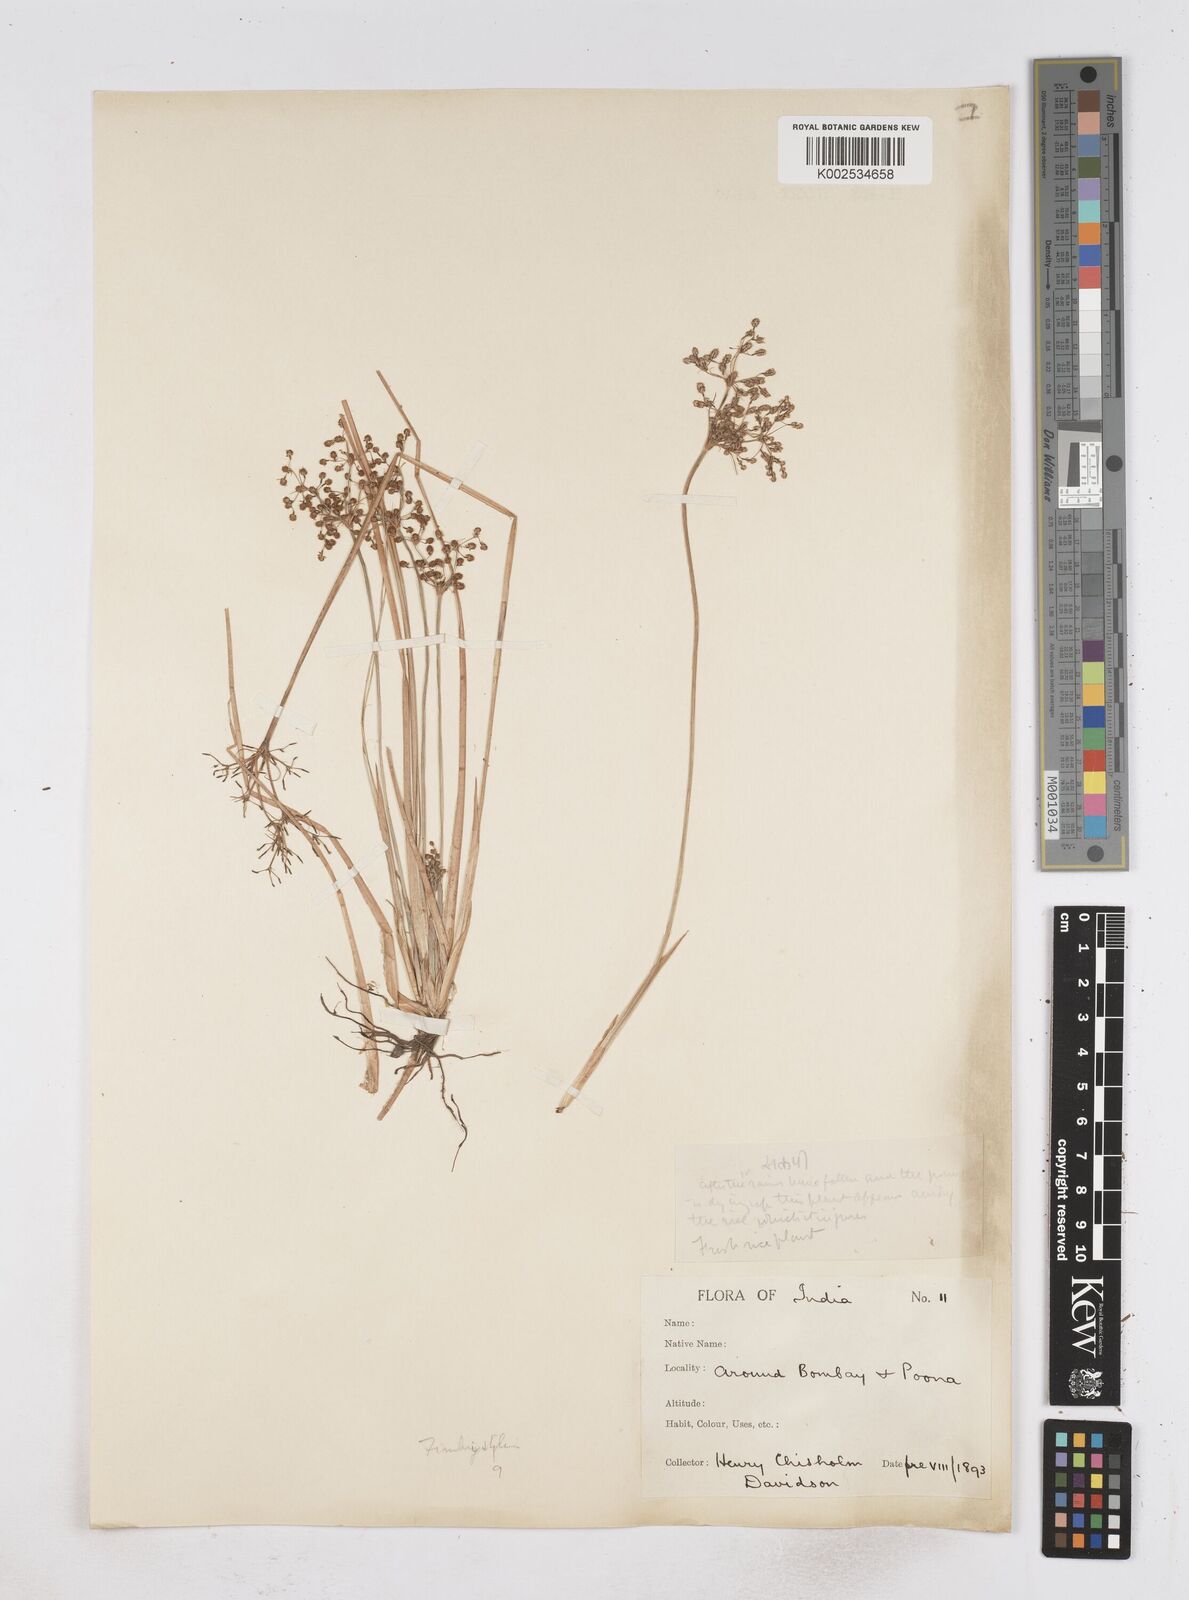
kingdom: Plantae
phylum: Tracheophyta
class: Liliopsida
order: Poales
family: Cyperaceae
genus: Fimbristylis
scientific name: Fimbristylis littoralis
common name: Fimbry
